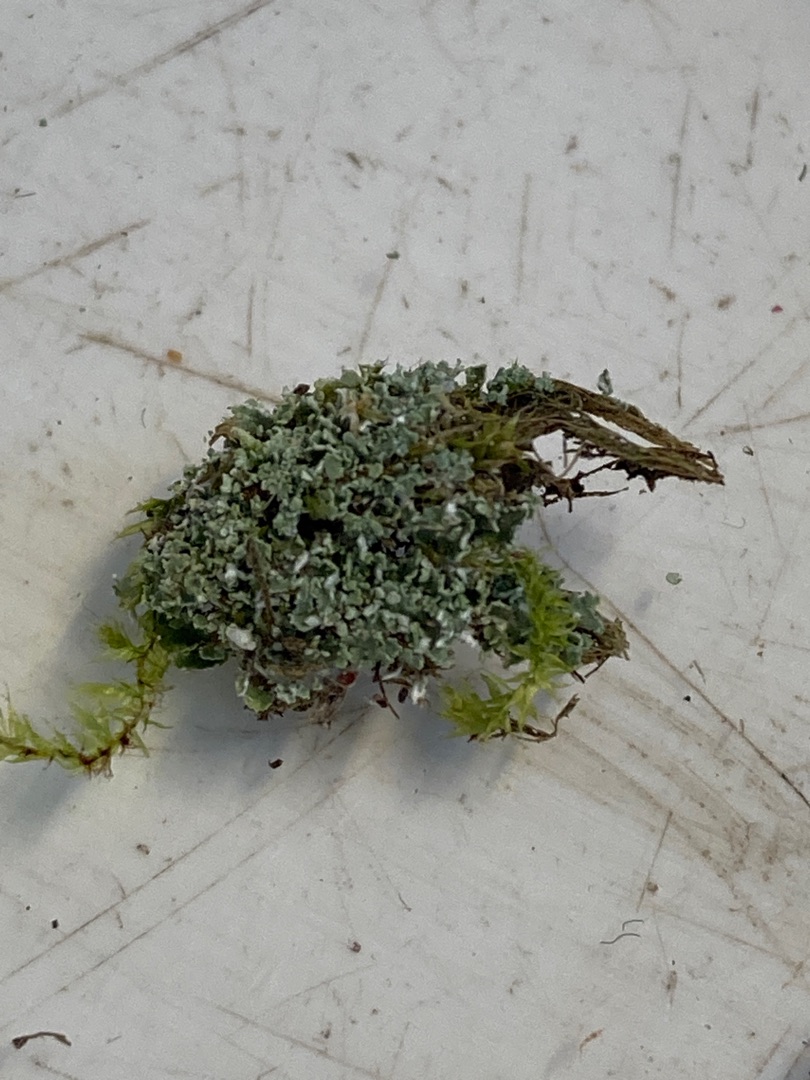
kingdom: Fungi
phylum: Ascomycota
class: Lecanoromycetes
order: Lecanorales
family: Cladoniaceae
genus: Cladonia
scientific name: Cladonia
